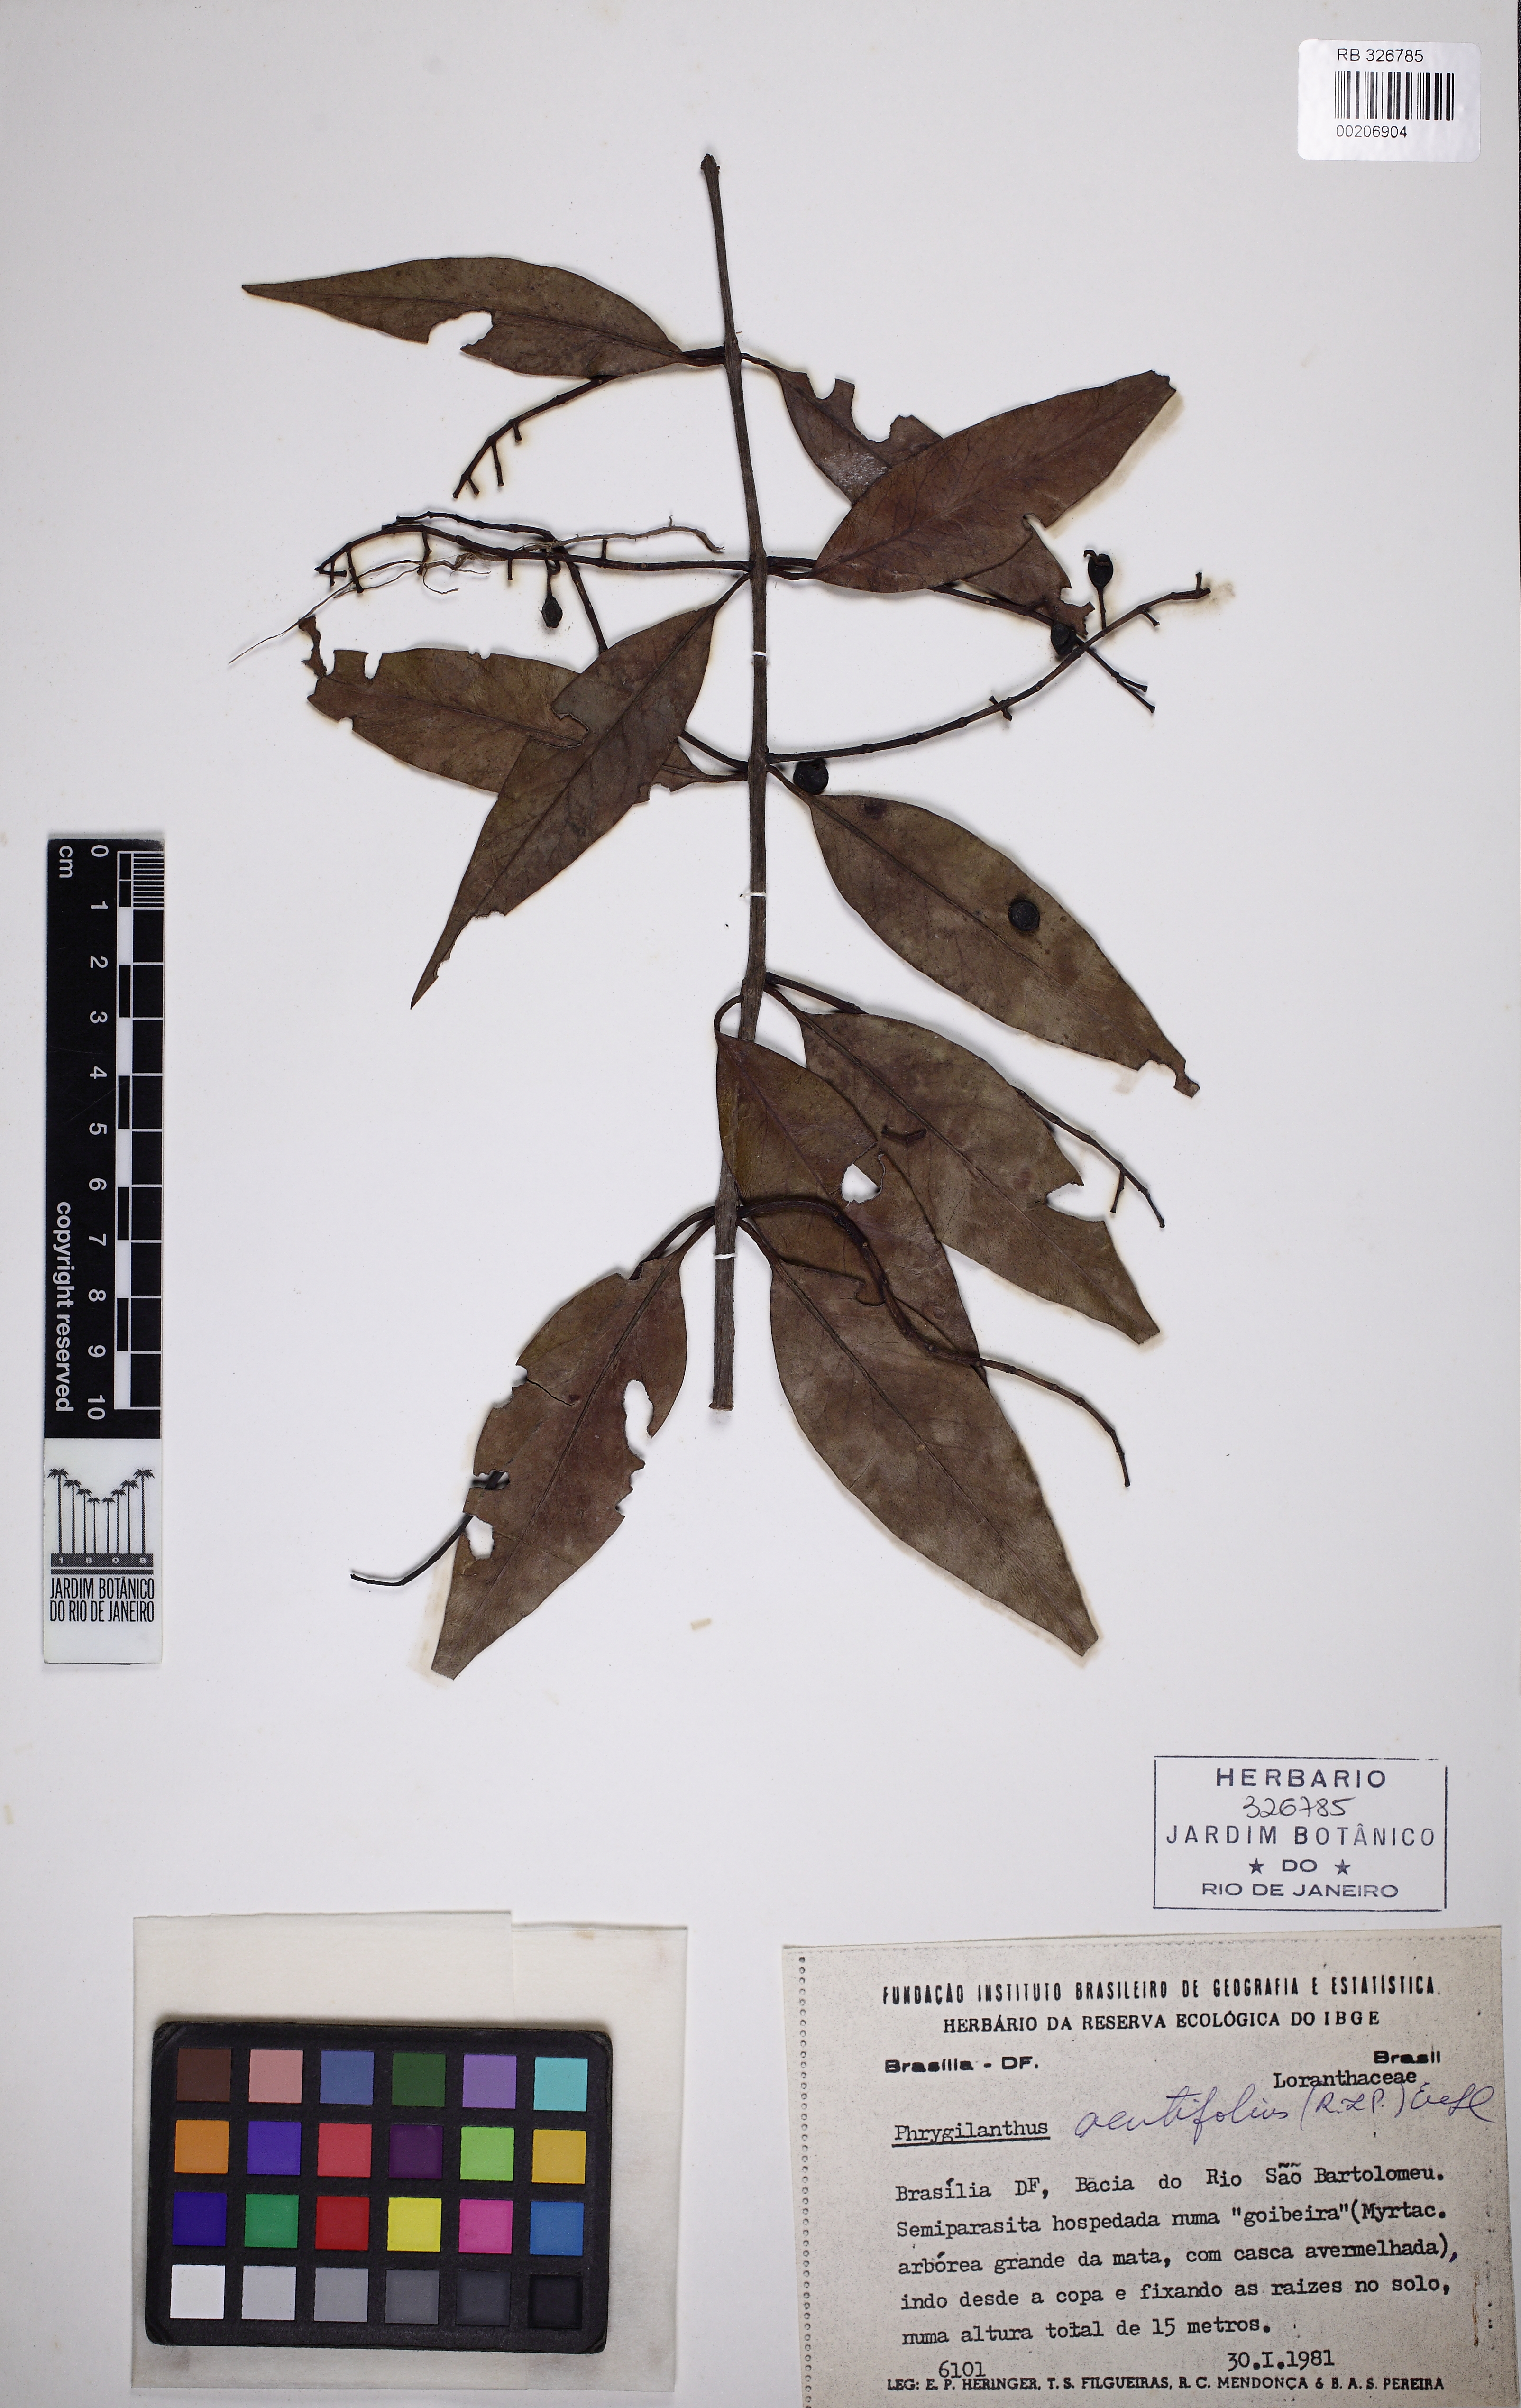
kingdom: Plantae
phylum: Tracheophyta
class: Magnoliopsida
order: Santalales
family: Loranthaceae
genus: Tripodanthus
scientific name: Tripodanthus acutifolius
